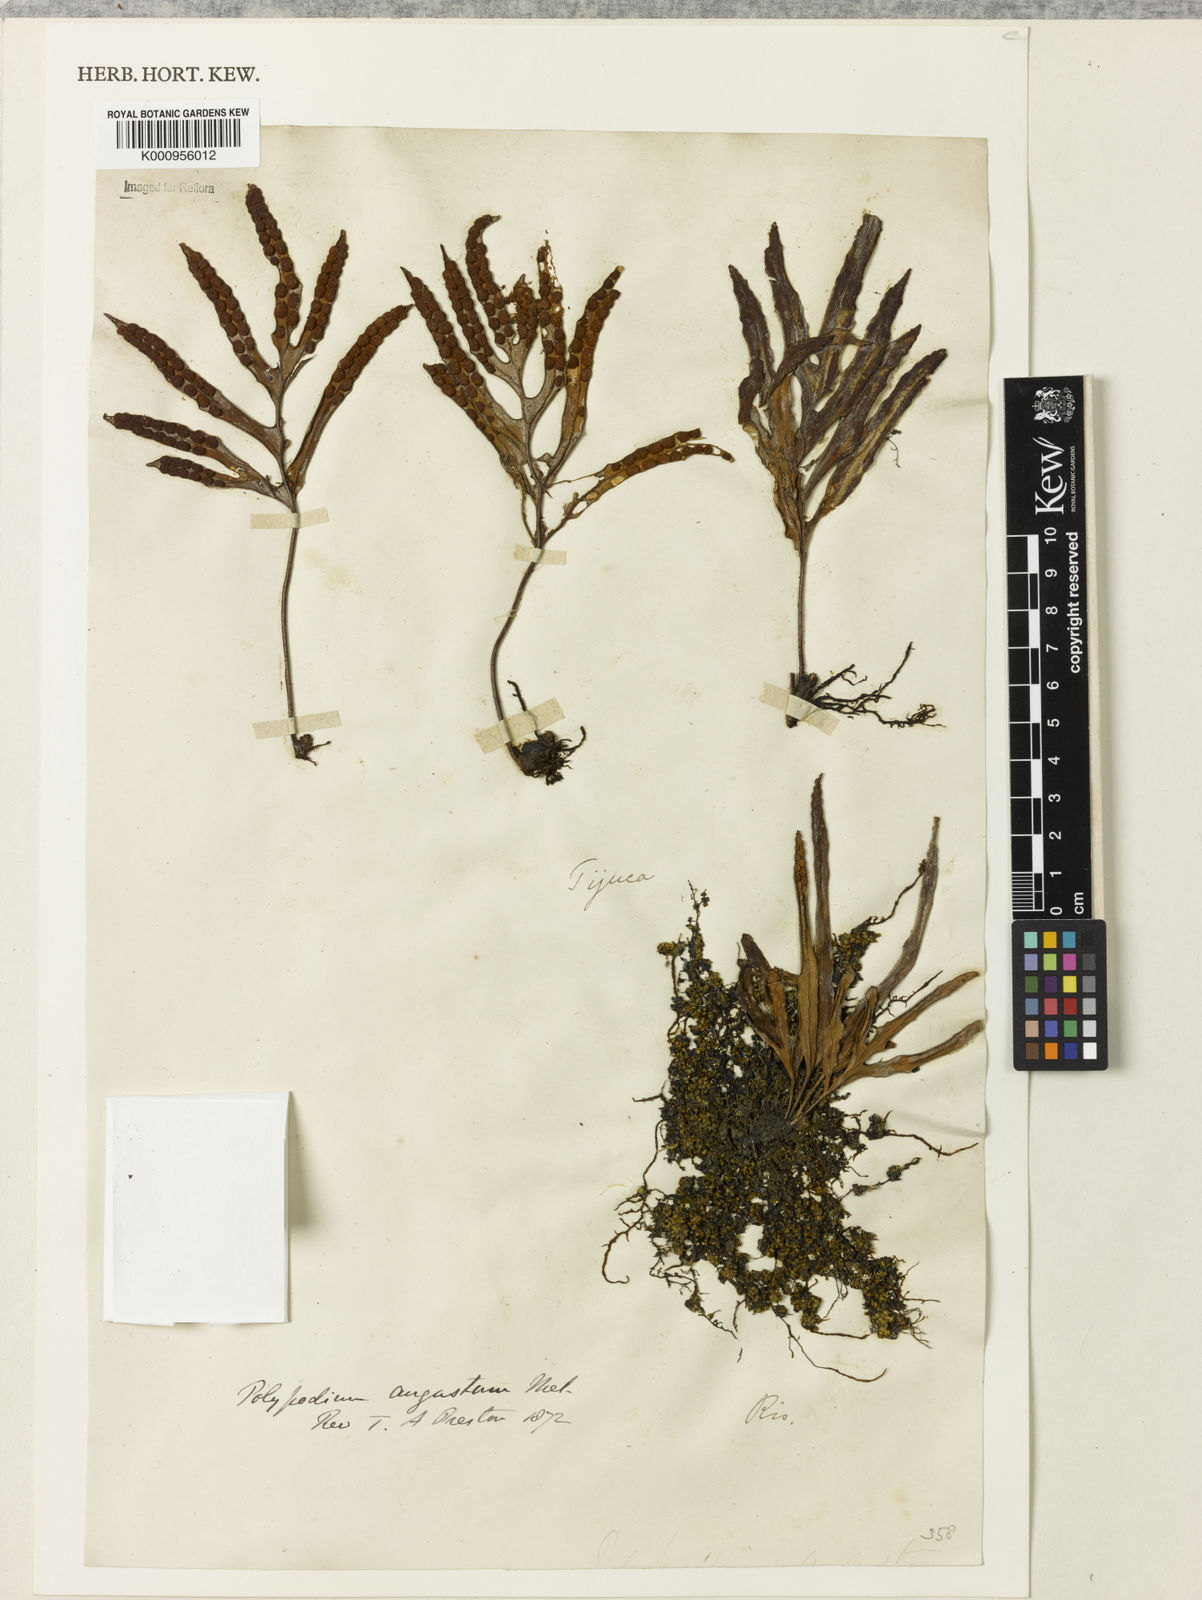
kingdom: Plantae
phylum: Tracheophyta
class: Polypodiopsida
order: Polypodiales
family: Polypodiaceae
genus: Pleopeltis
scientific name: Pleopeltis angusta
